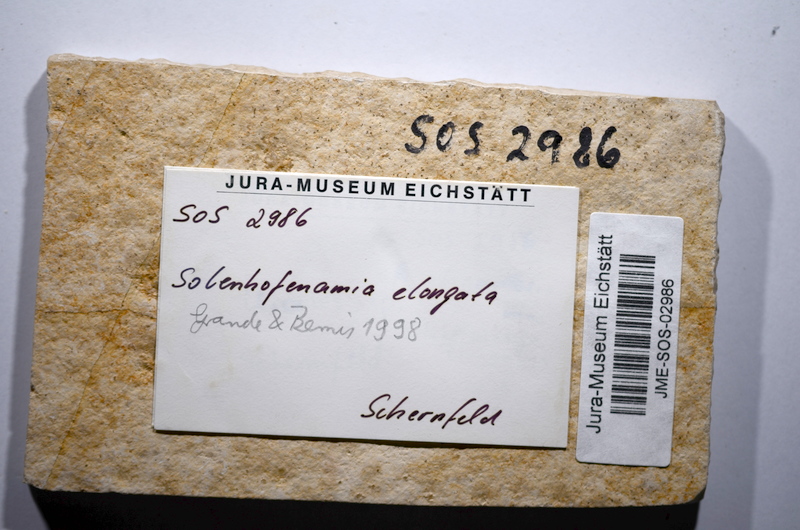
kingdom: Animalia
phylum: Chordata
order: Amiiformes
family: Amiidae
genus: Solnhofenamia
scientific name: Solnhofenamia elongata
